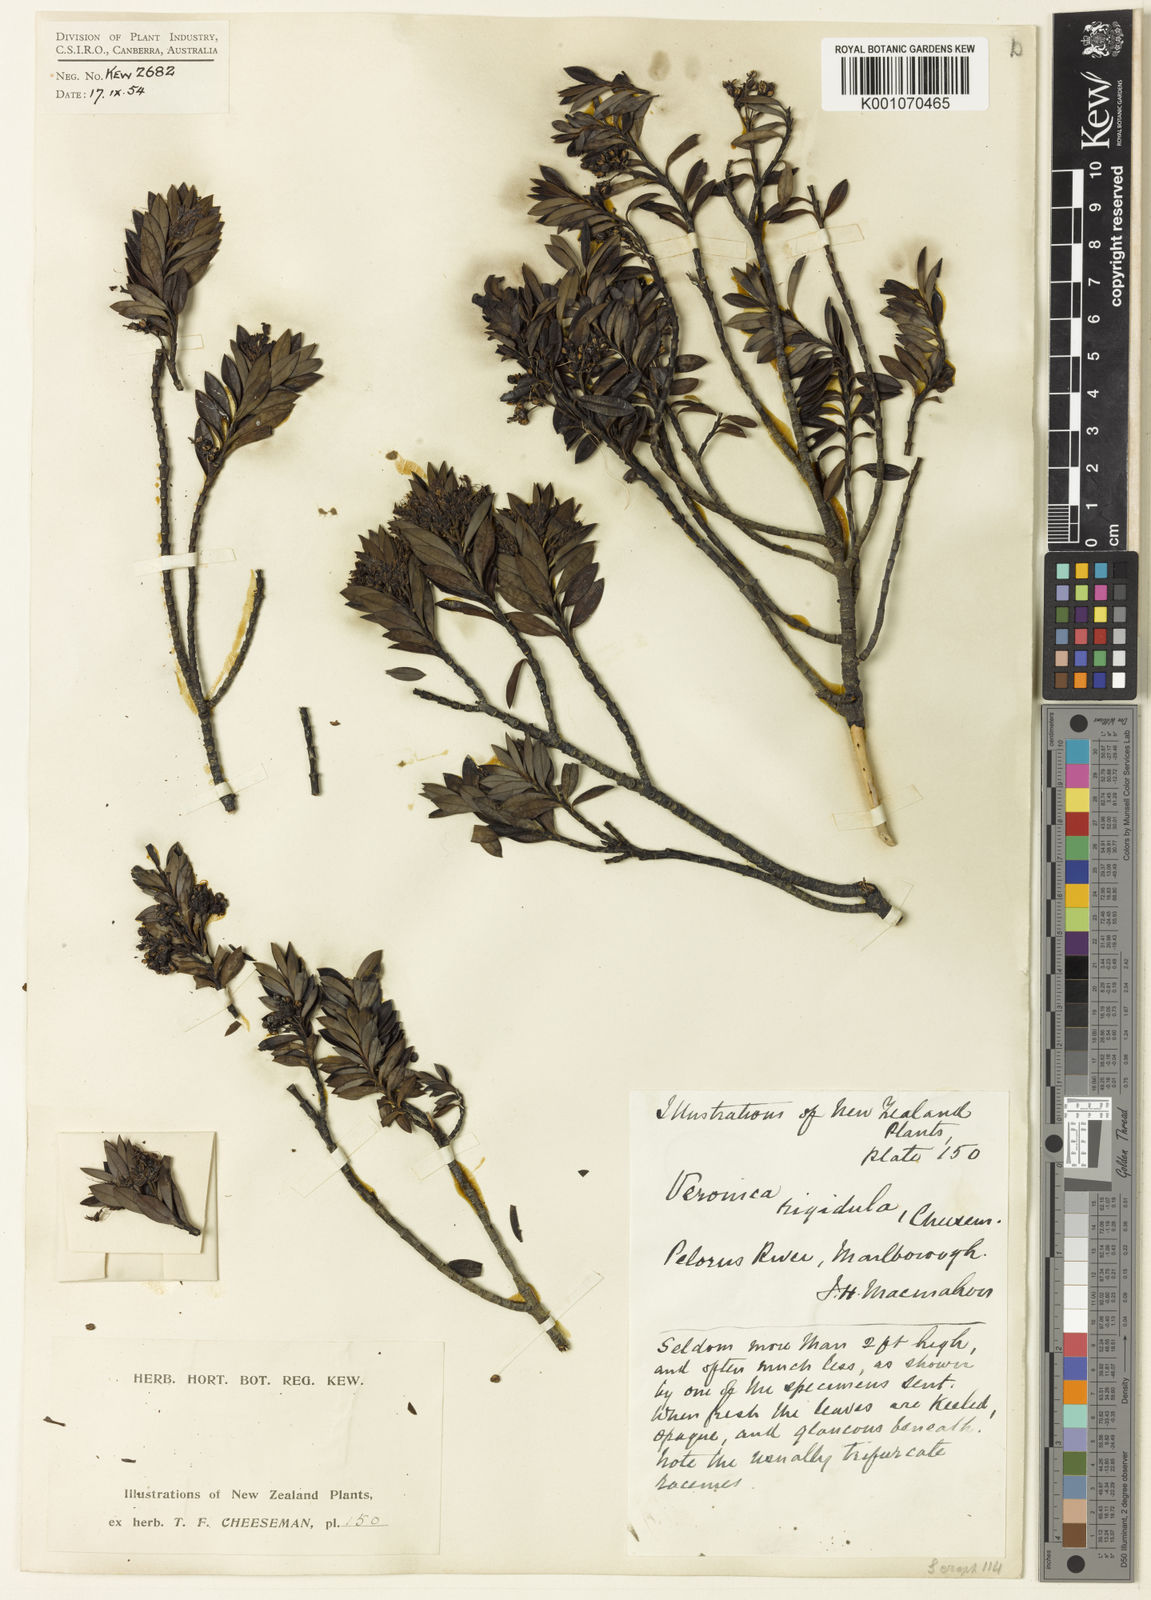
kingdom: Plantae
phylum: Tracheophyta
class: Magnoliopsida
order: Lamiales
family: Plantaginaceae
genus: Veronica
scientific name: Veronica rigidula
